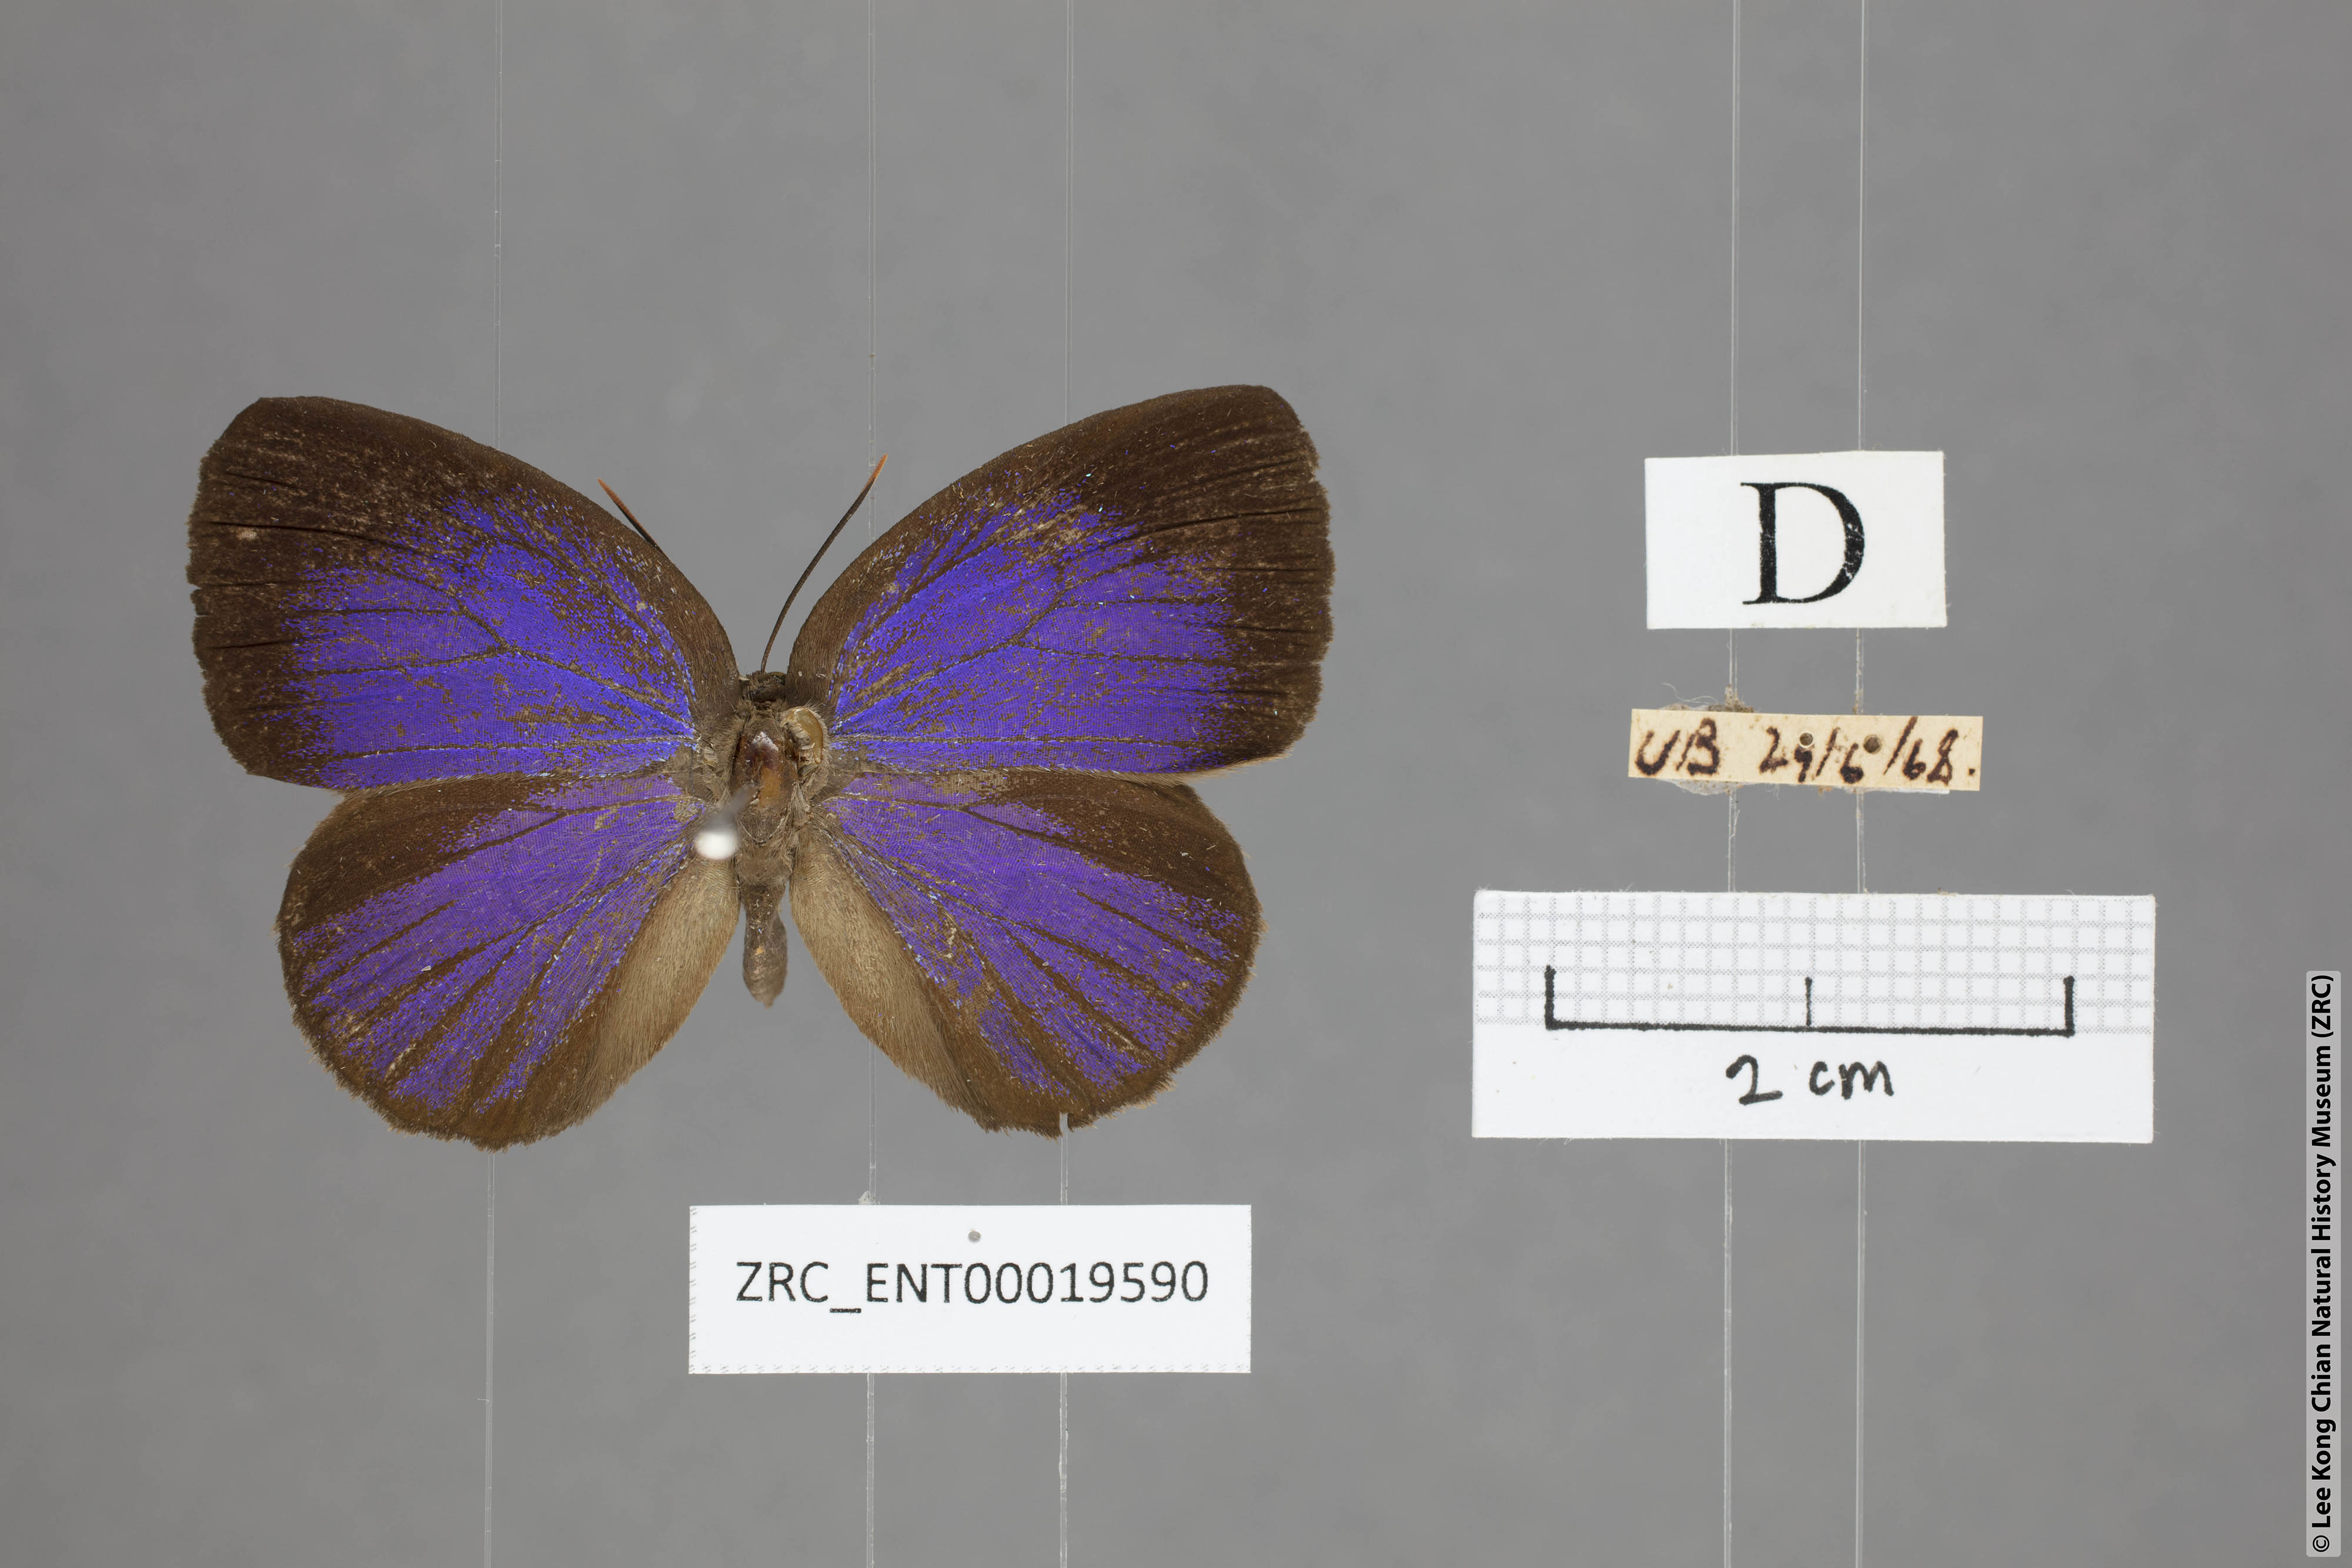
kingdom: Animalia
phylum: Arthropoda
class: Insecta
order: Lepidoptera
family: Lycaenidae
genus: Arhopala
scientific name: Arhopala kurzi
